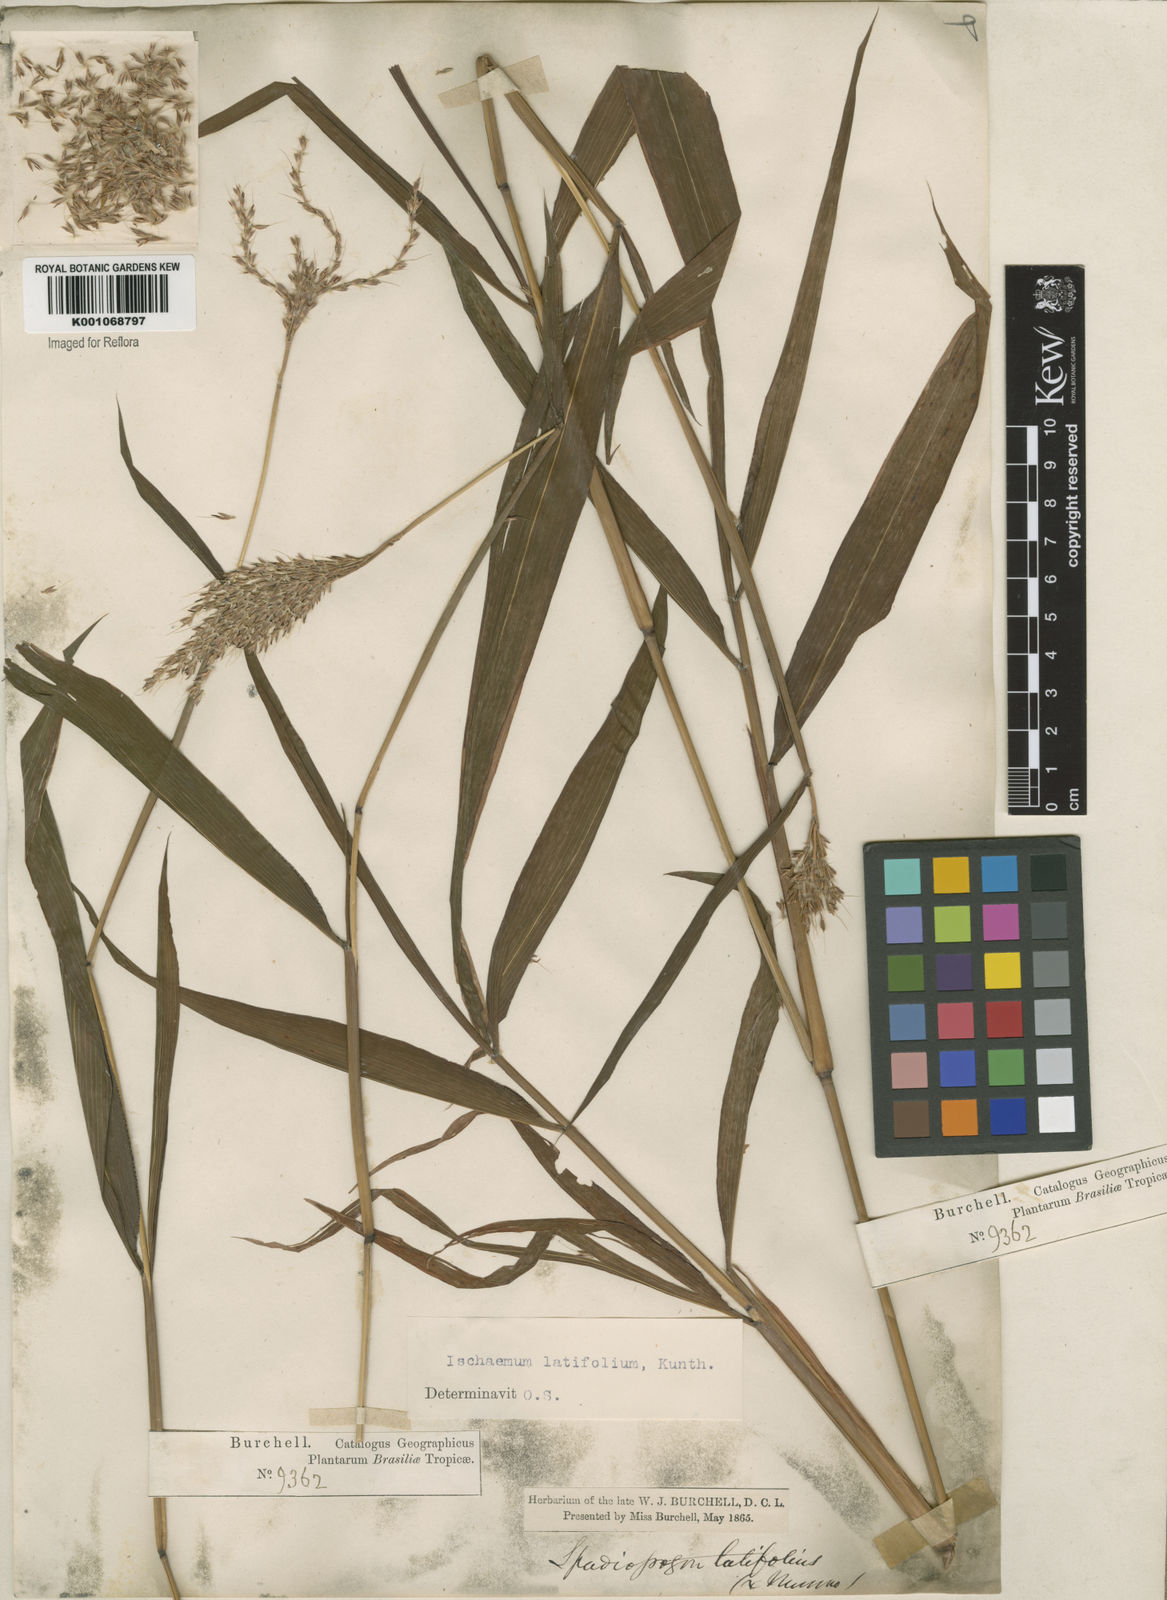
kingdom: Plantae
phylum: Tracheophyta
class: Liliopsida
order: Poales
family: Poaceae
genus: Ischaemum
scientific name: Ischaemum latifolium
